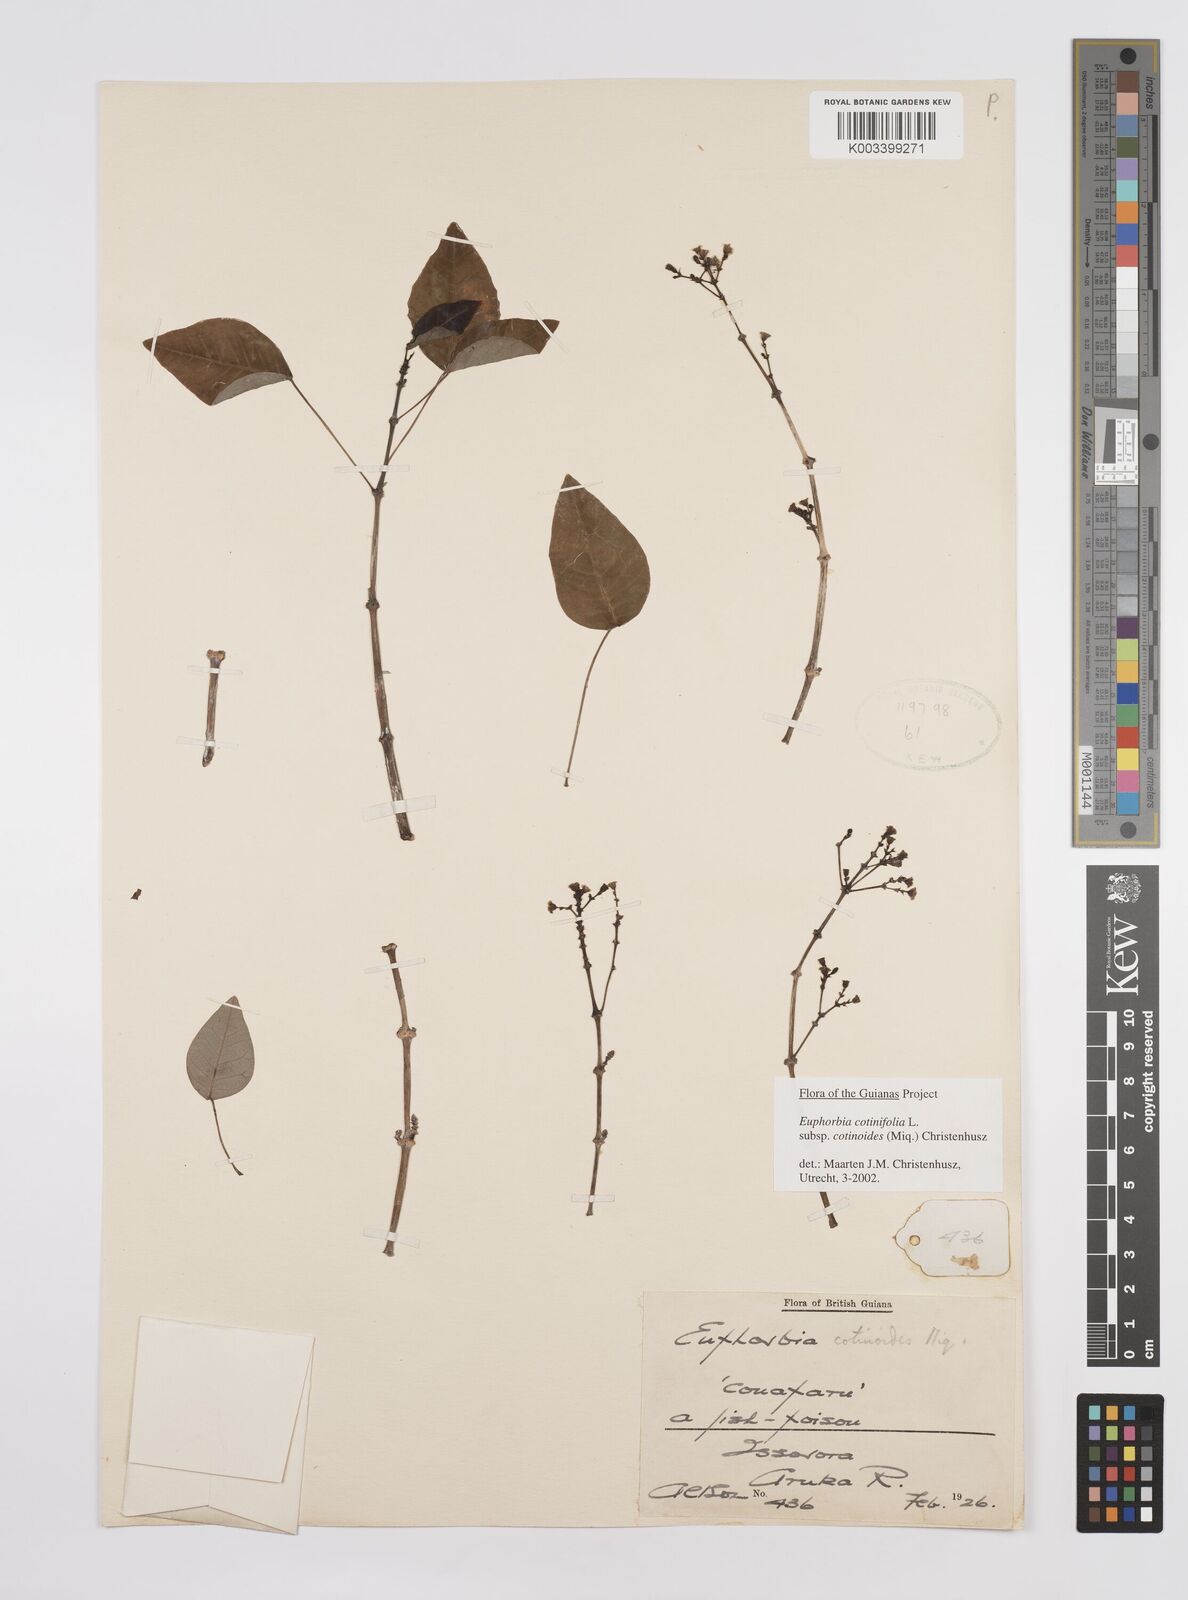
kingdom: Plantae
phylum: Tracheophyta
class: Magnoliopsida
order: Malpighiales
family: Euphorbiaceae
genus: Euphorbia
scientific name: Euphorbia cotinifolia
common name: Tropical smokebush
